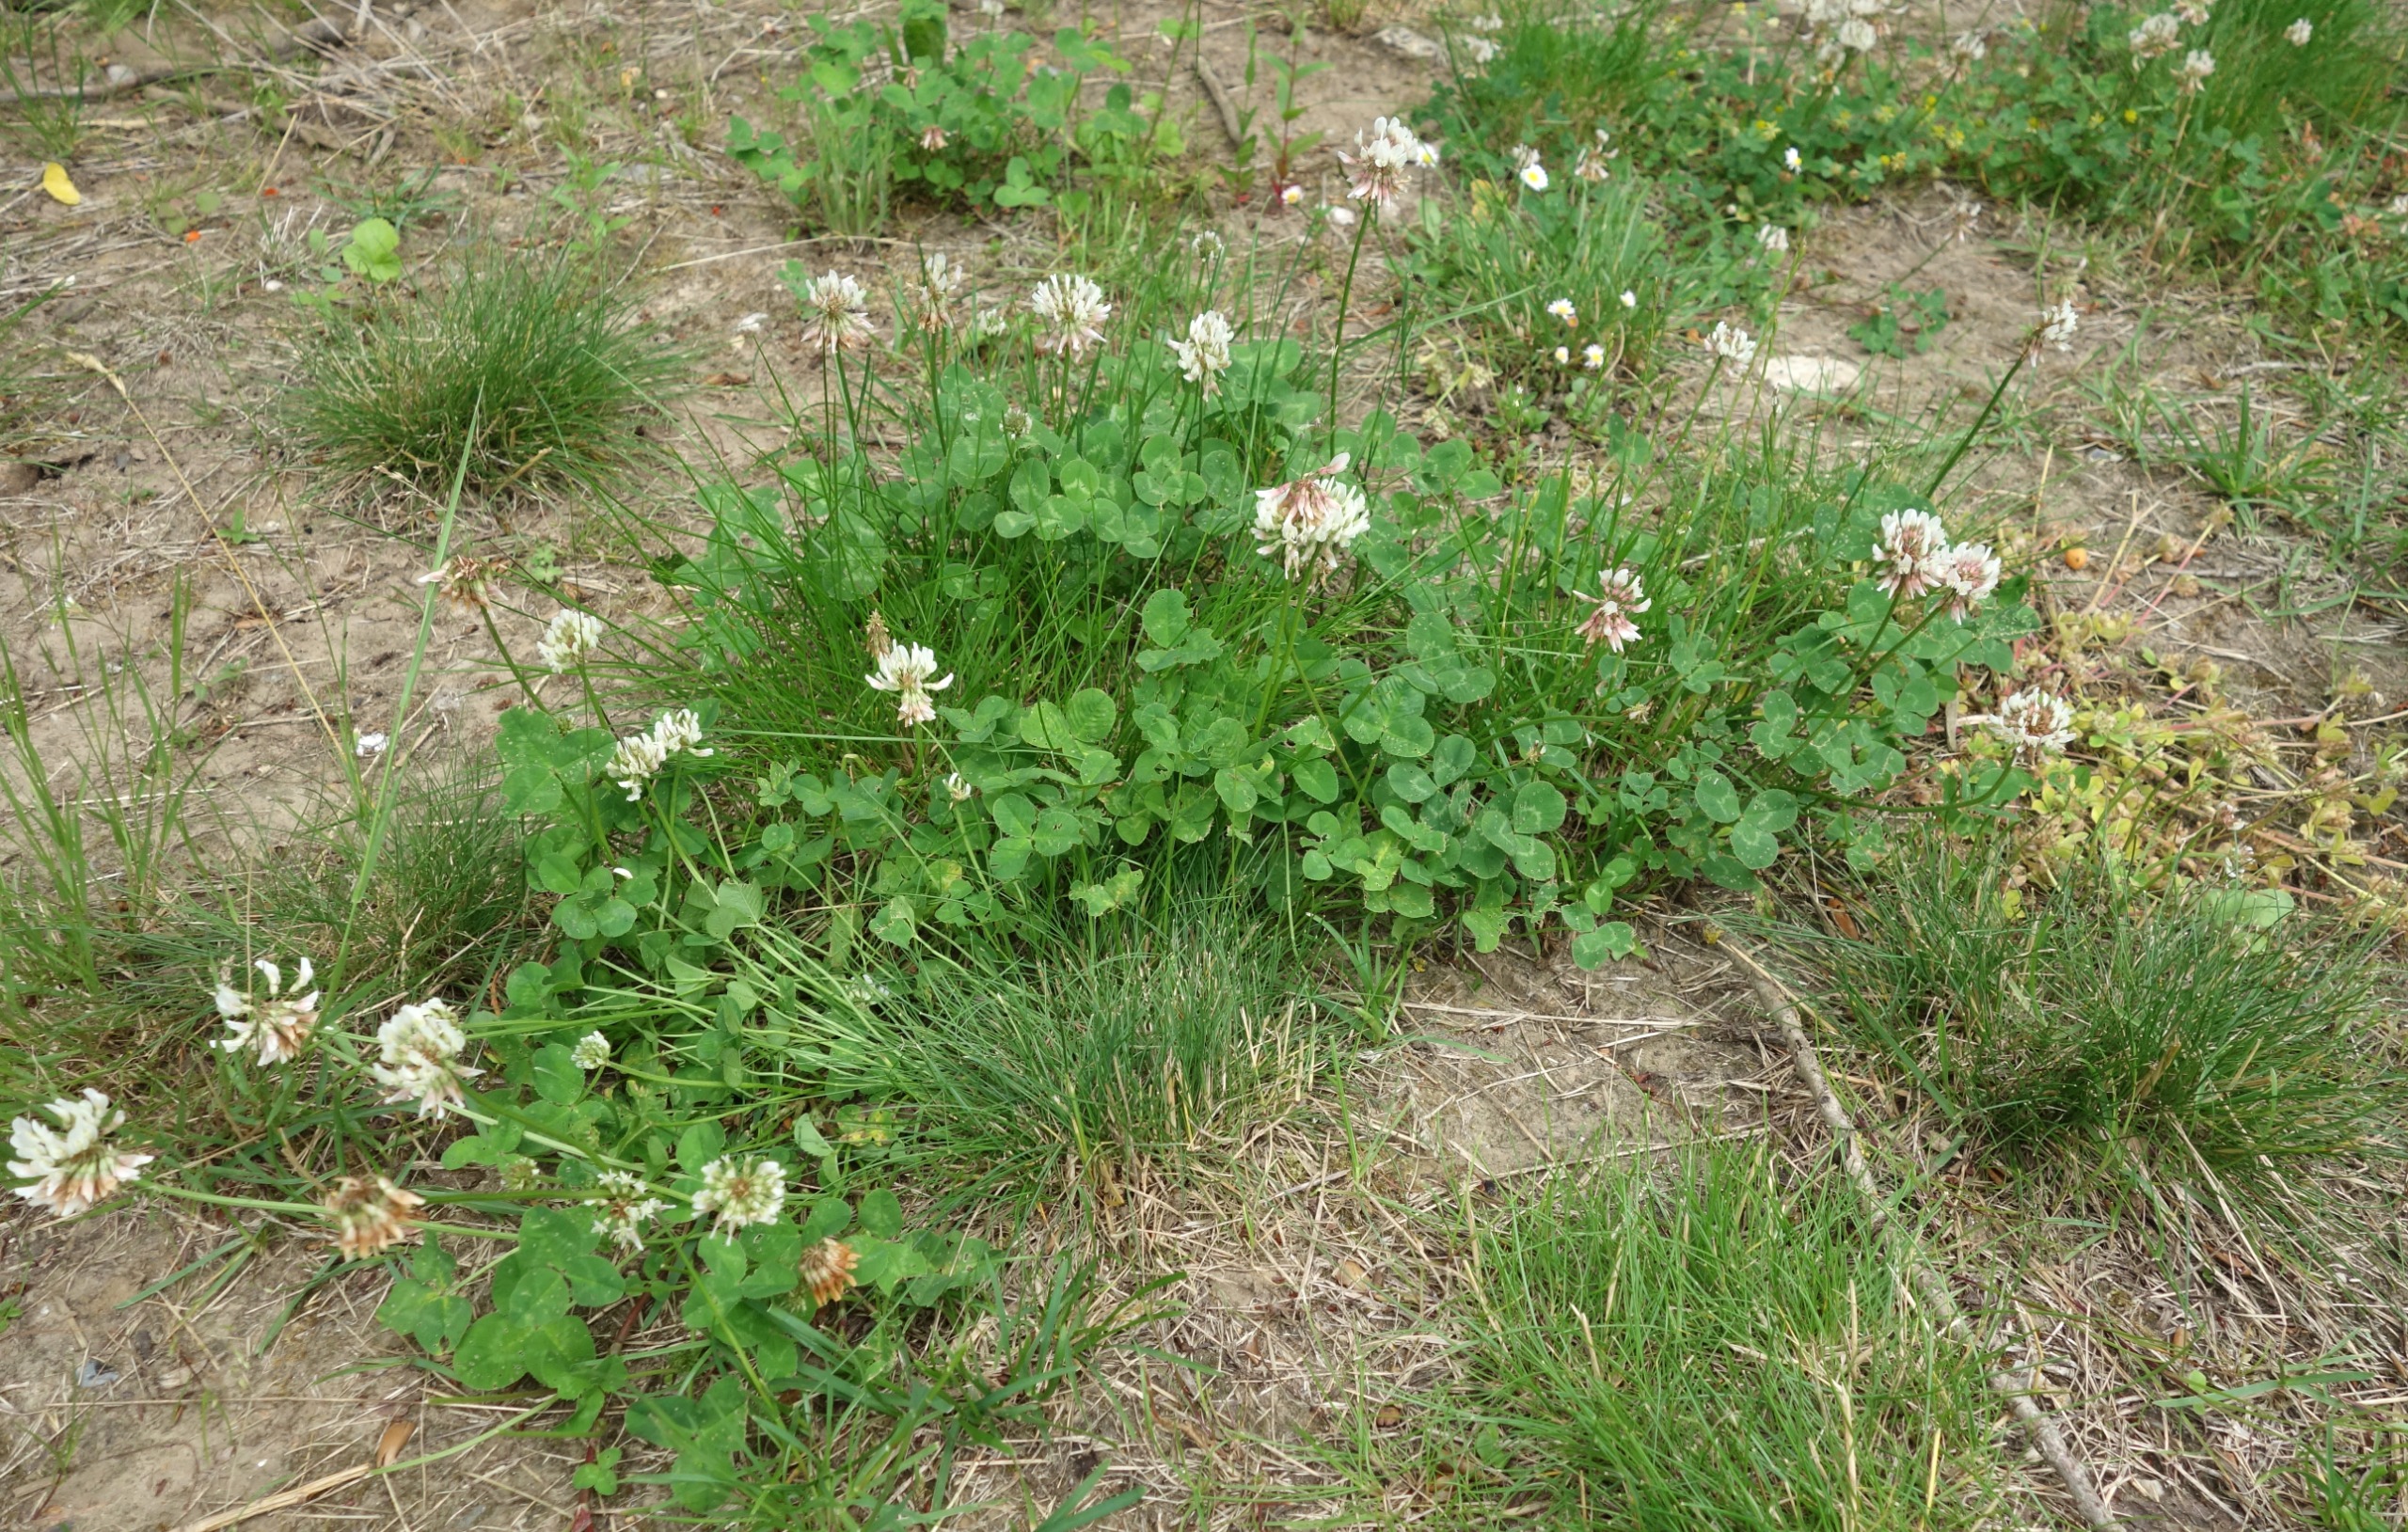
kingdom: Plantae
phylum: Tracheophyta
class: Magnoliopsida
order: Fabales
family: Fabaceae
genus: Trifolium
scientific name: Trifolium repens
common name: Hvid-kløver
